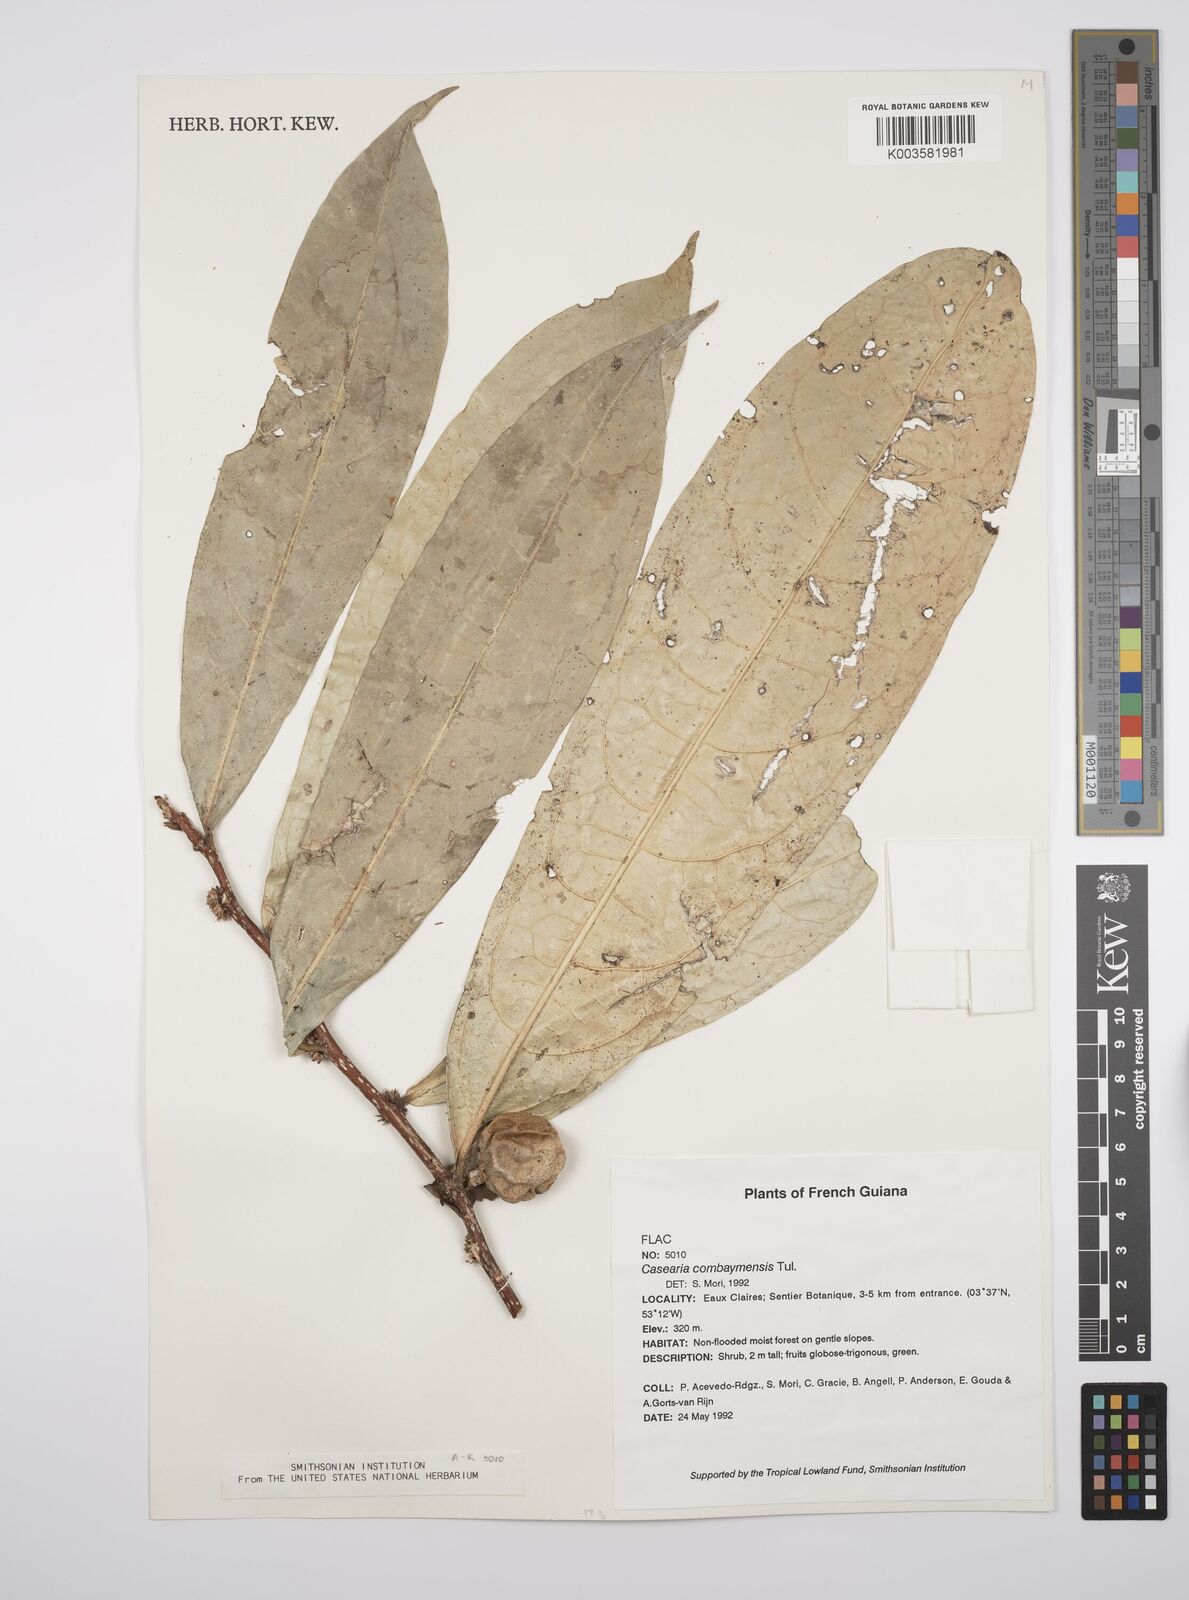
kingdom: Plantae
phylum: Tracheophyta
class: Magnoliopsida
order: Malpighiales
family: Salicaceae
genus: Casearia
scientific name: Casearia
